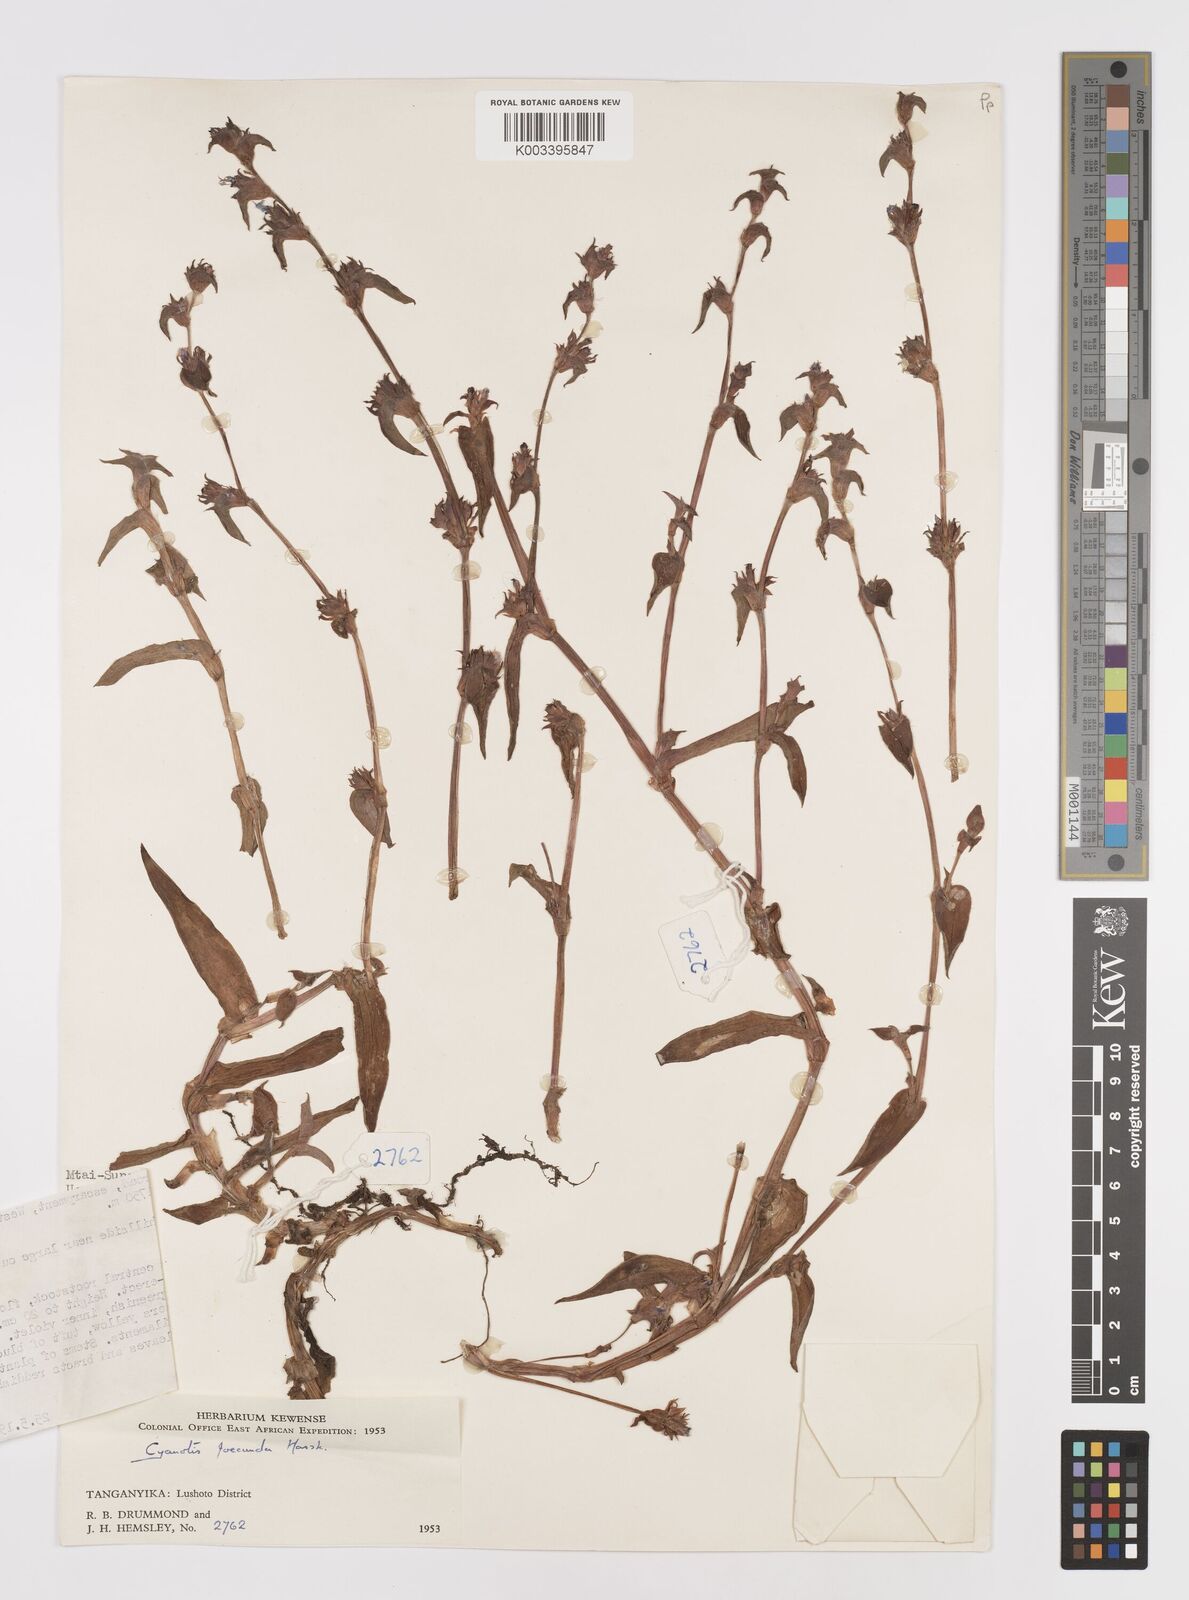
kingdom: Plantae
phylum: Tracheophyta
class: Liliopsida
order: Commelinales
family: Commelinaceae
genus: Cyanotis
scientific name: Cyanotis foecunda
